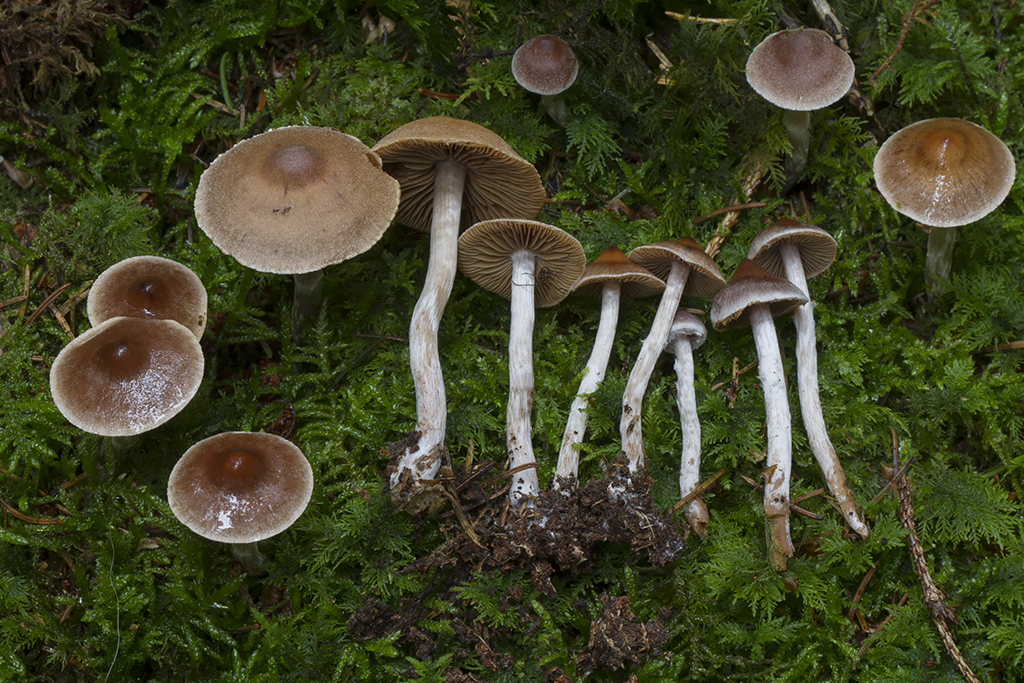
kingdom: Fungi
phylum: Basidiomycota
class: Agaricomycetes
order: Agaricales
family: Cortinariaceae
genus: Cortinarius
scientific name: Cortinarius comptulus
